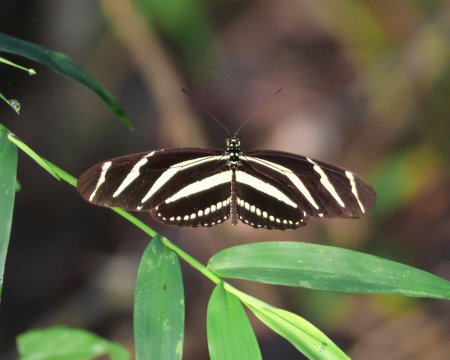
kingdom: Animalia
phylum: Arthropoda
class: Insecta
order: Lepidoptera
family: Nymphalidae
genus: Heliconius
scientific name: Heliconius charithonia
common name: Zebra Longwing
